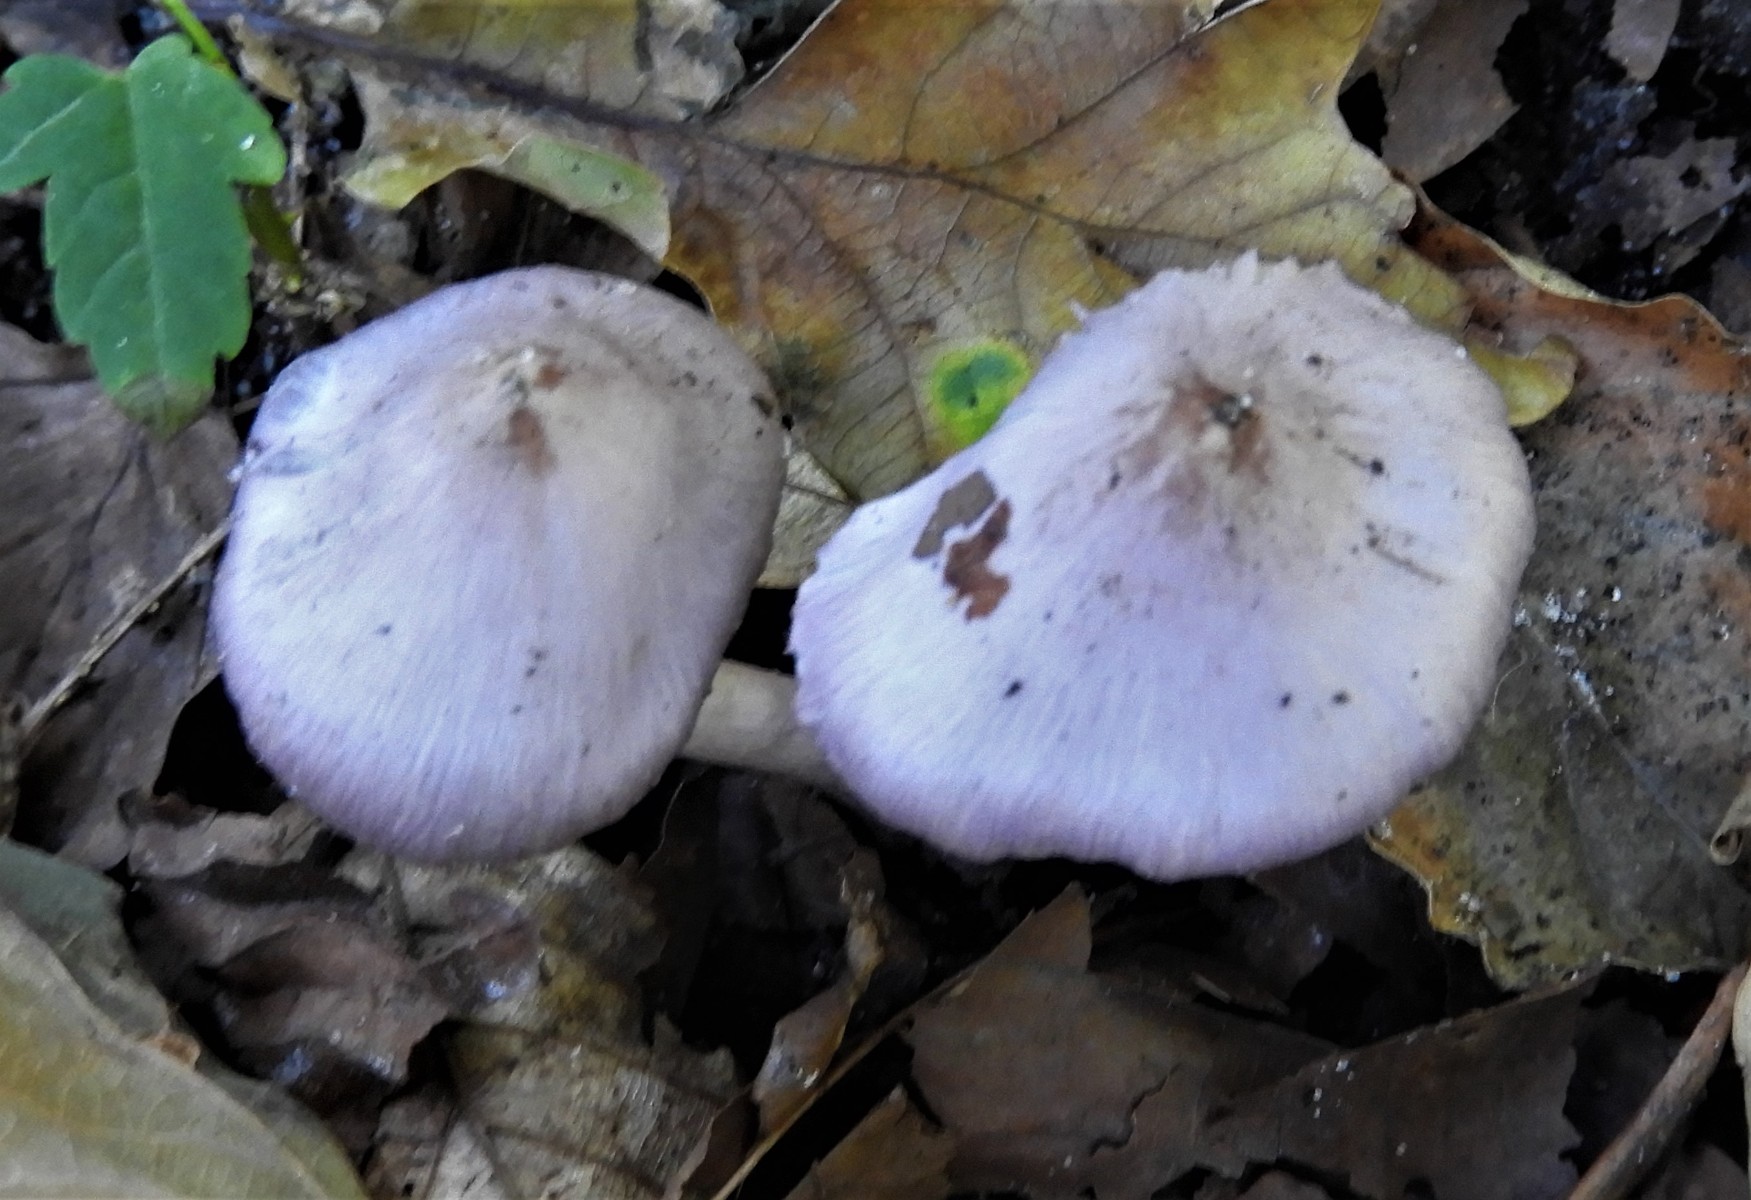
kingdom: Fungi
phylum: Basidiomycota
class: Agaricomycetes
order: Agaricales
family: Inocybaceae
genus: Inocybe
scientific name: Inocybe geophylla
